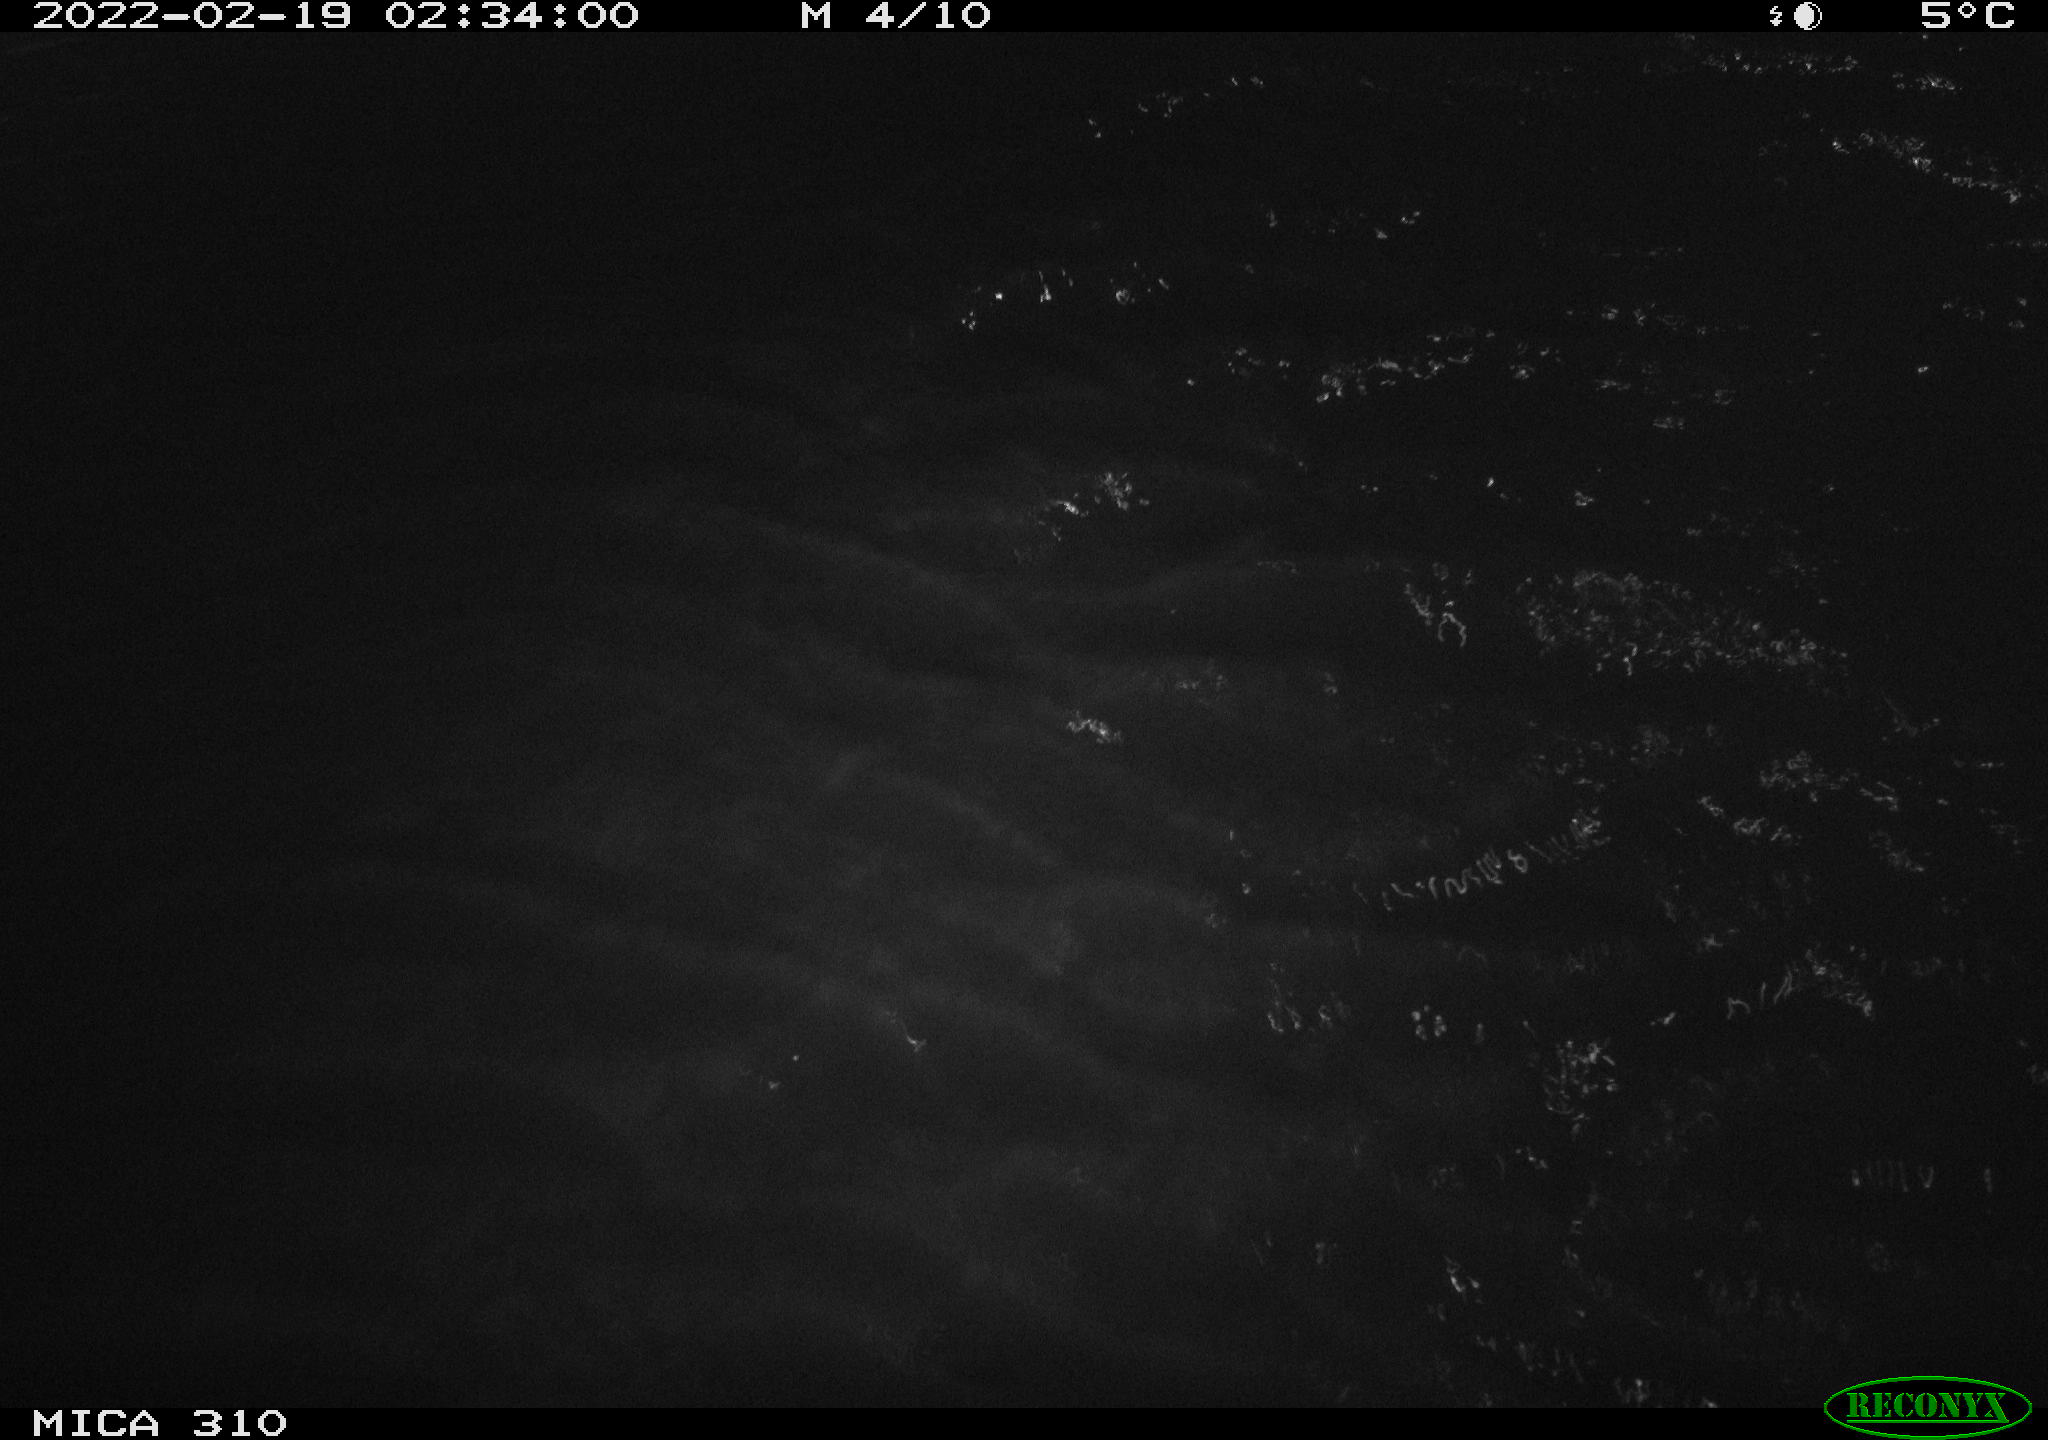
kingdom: Animalia
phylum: Chordata
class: Mammalia
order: Rodentia
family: Cricetidae
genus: Ondatra
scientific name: Ondatra zibethicus
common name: Muskrat
